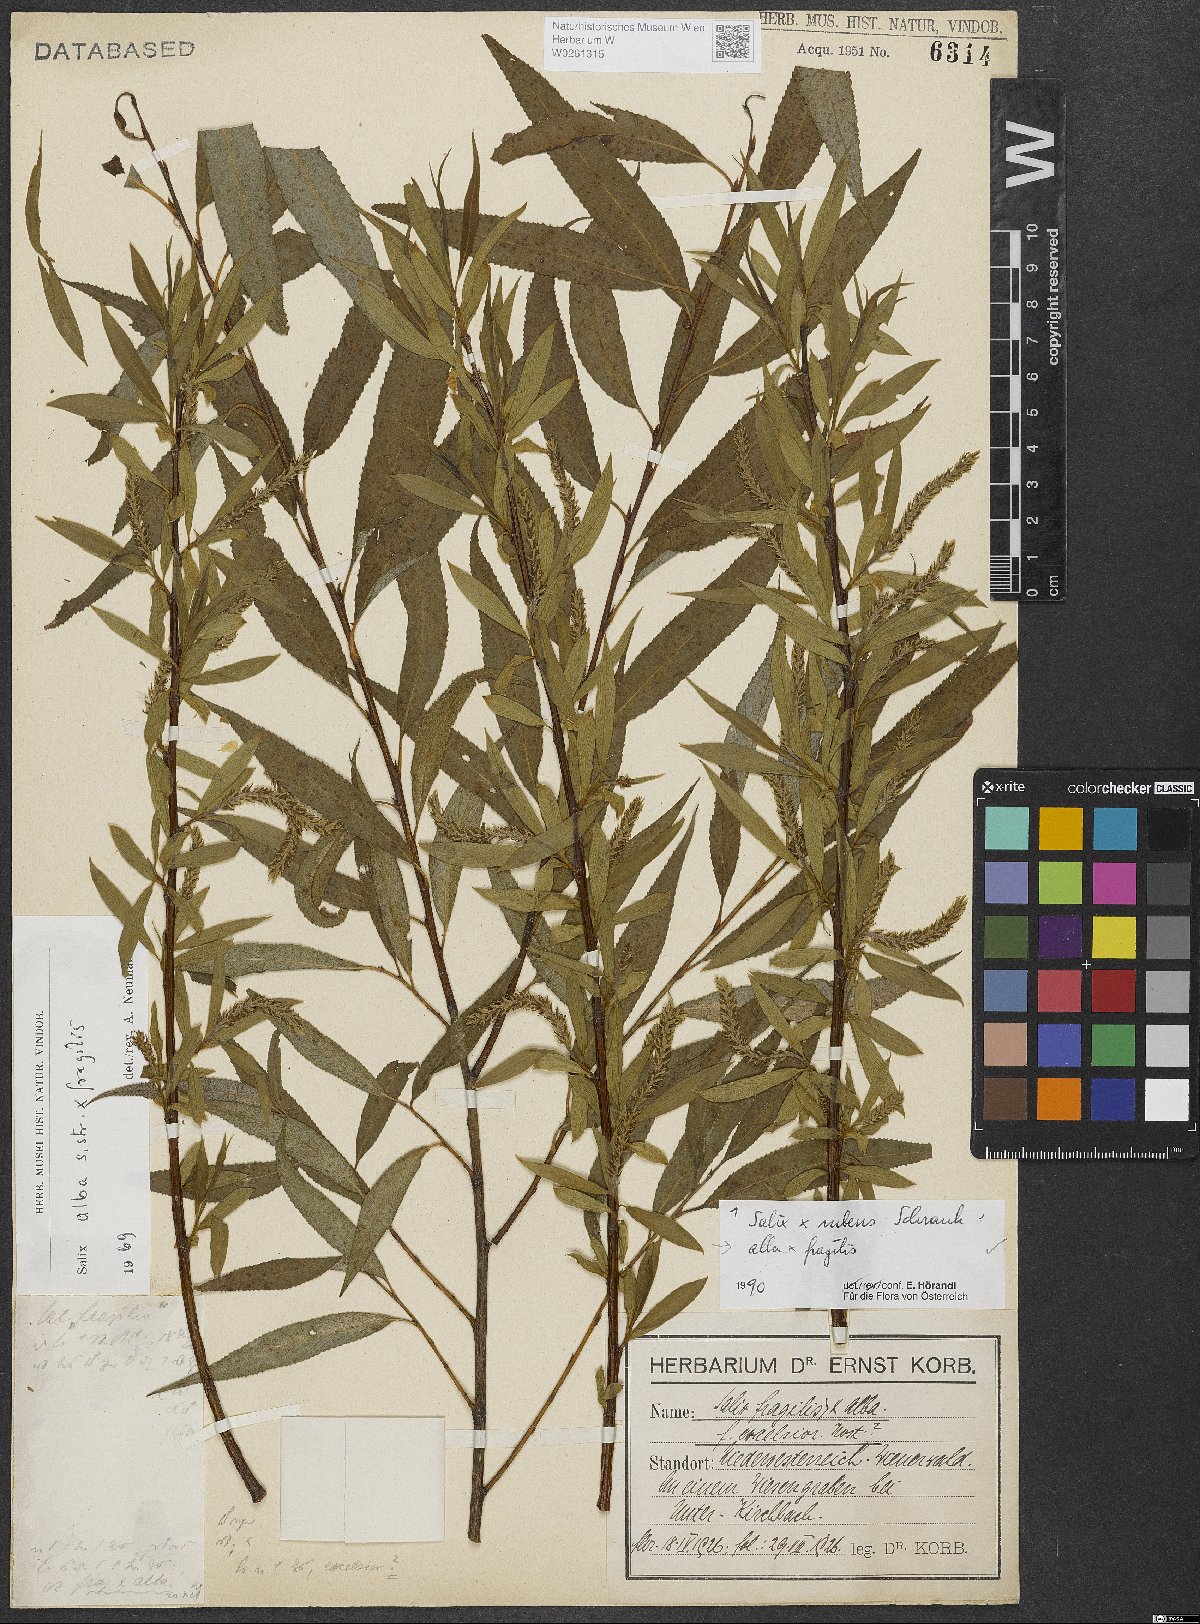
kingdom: Plantae
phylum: Tracheophyta
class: Magnoliopsida
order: Malpighiales
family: Salicaceae
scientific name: Salicaceae
